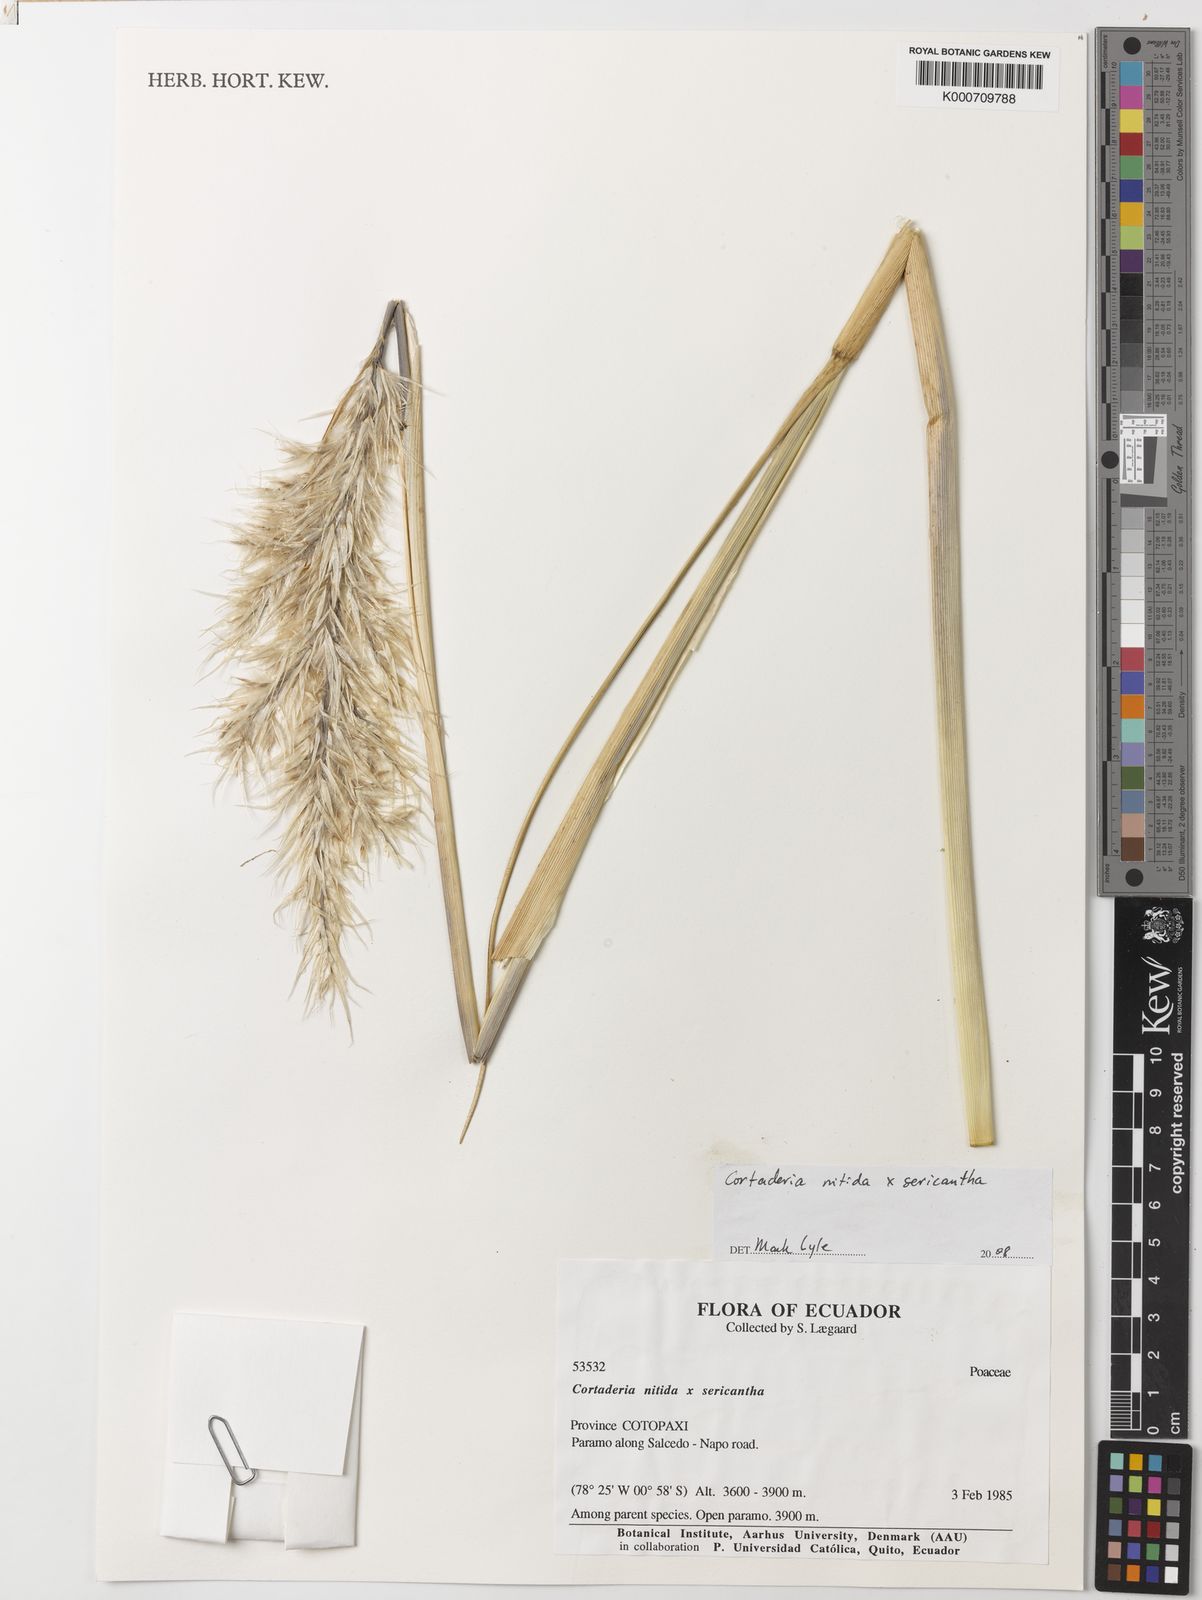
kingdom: Plantae
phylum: Tracheophyta
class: Liliopsida
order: Poales
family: Poaceae
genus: Cortaderia
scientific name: Cortaderia nitida
